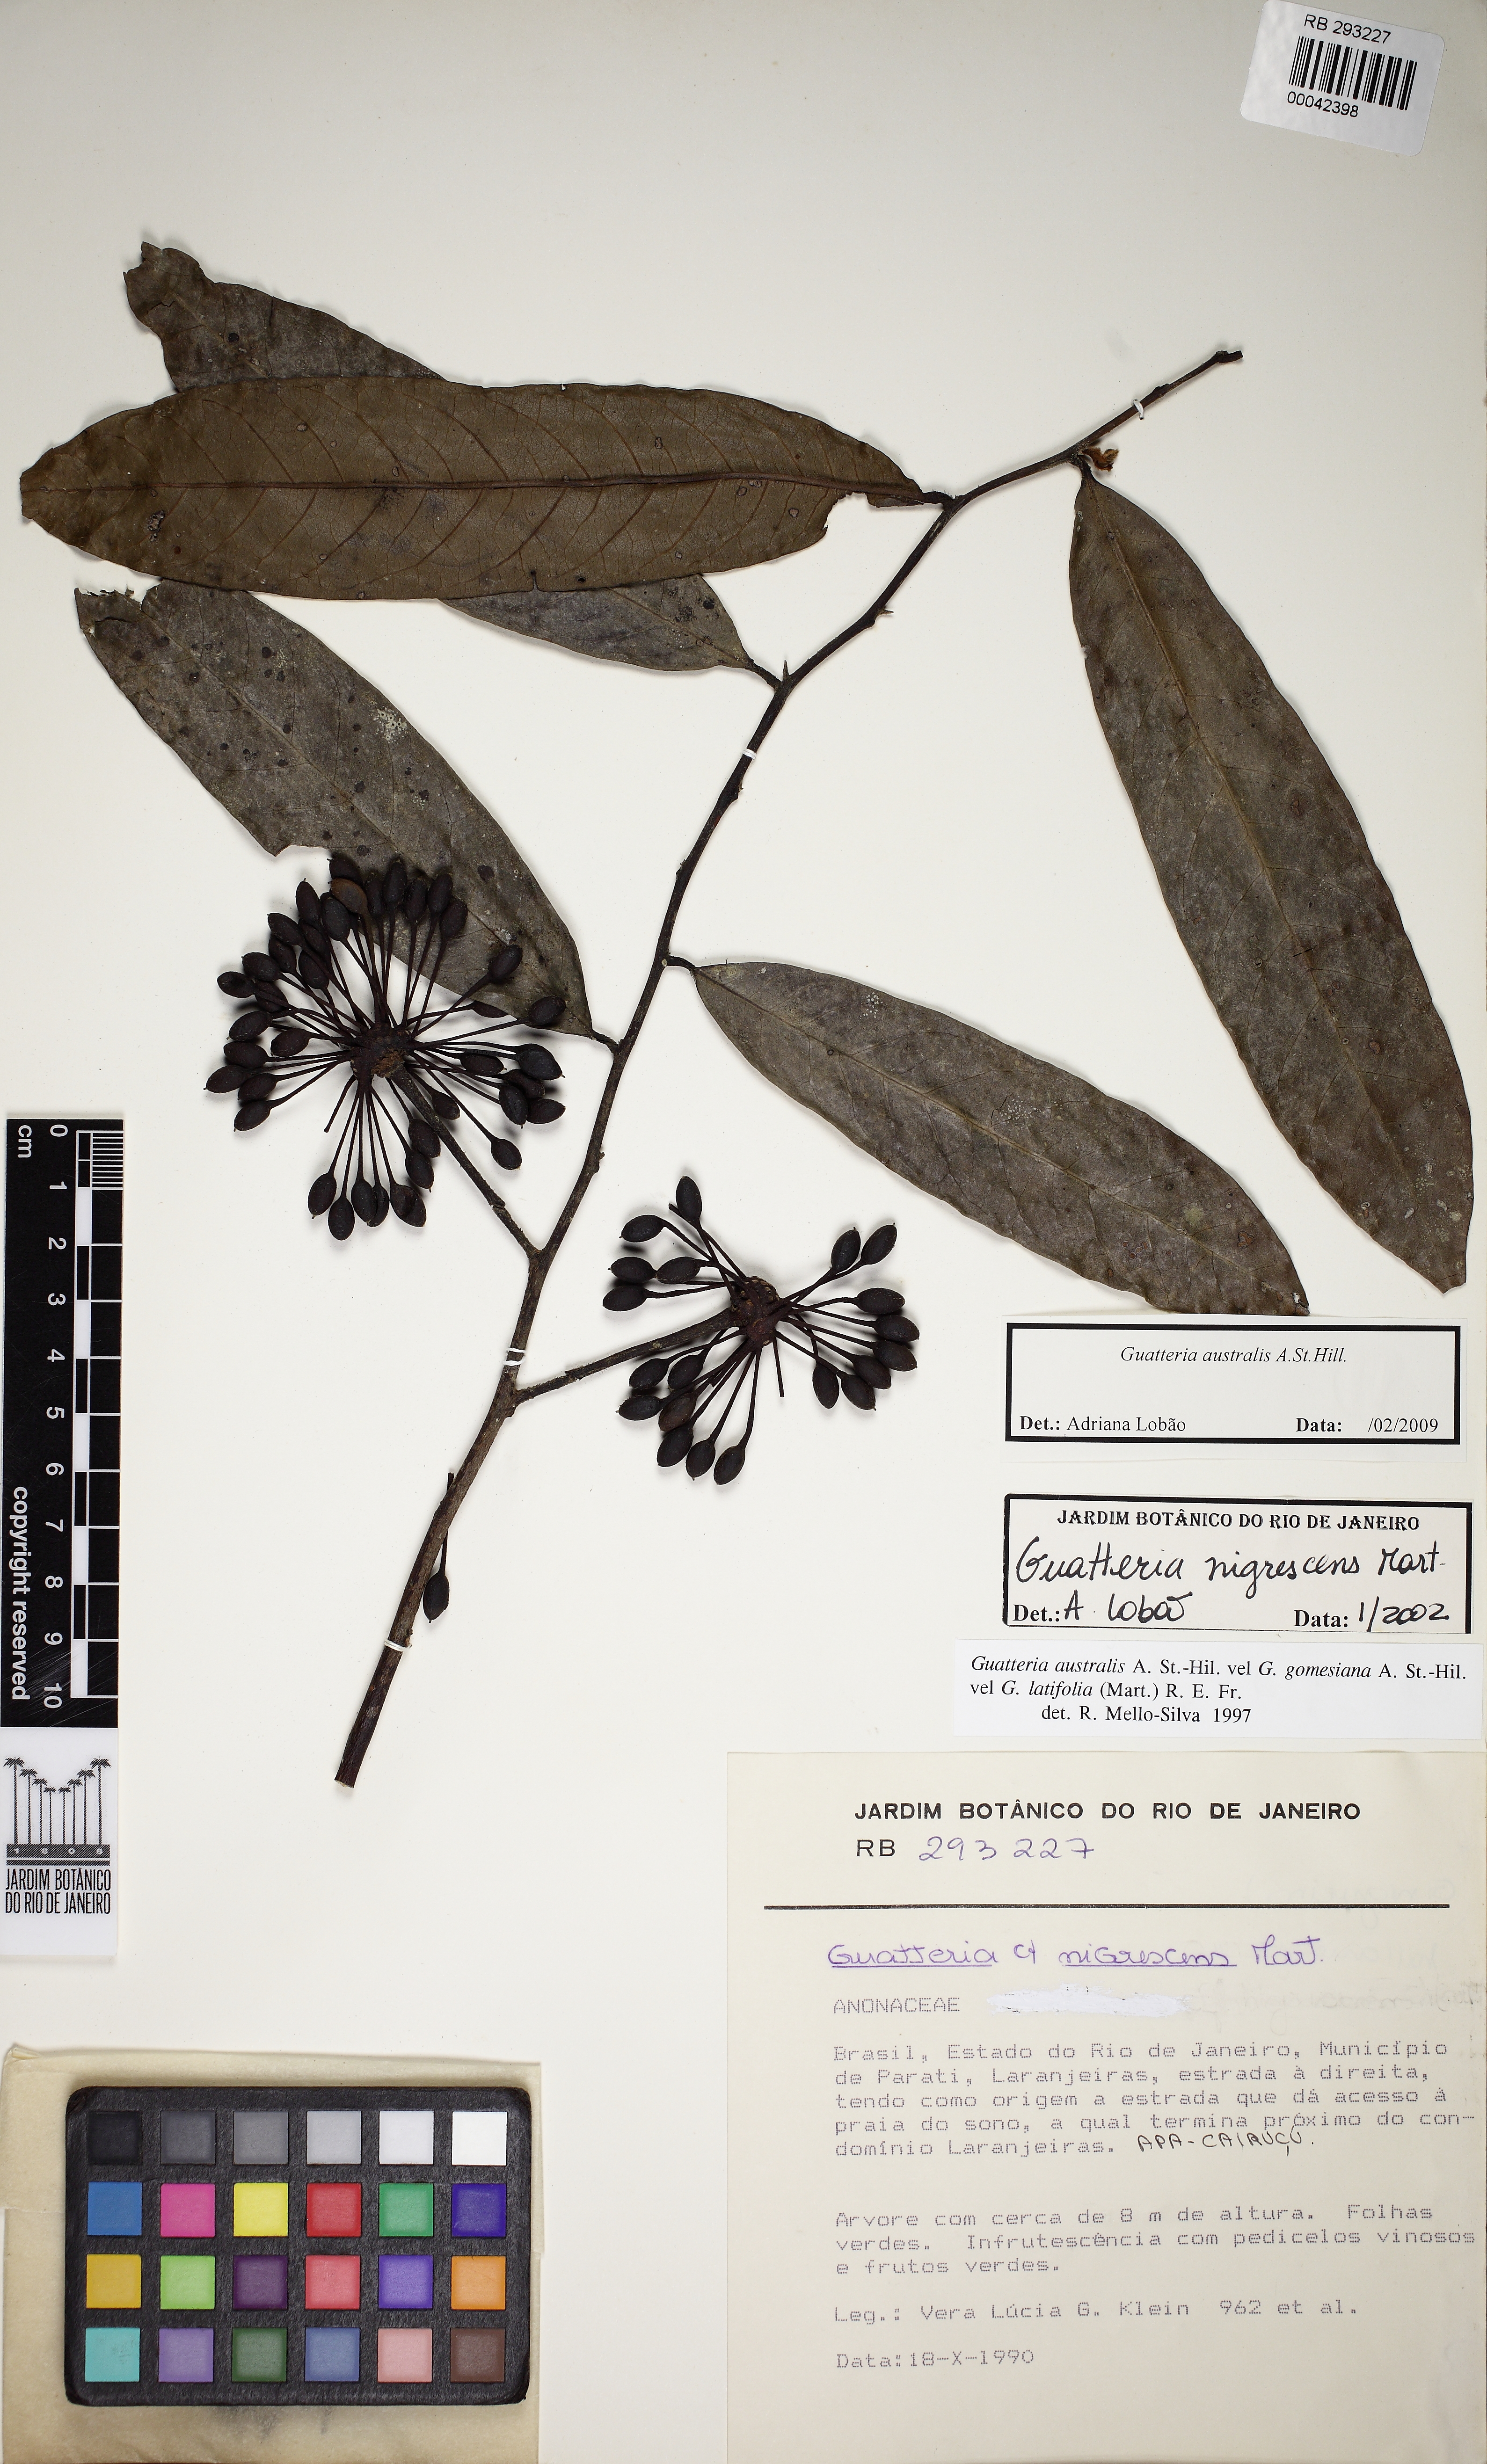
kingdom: Plantae
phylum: Tracheophyta
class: Magnoliopsida
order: Magnoliales
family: Annonaceae
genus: Guatteria
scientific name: Guatteria australis
